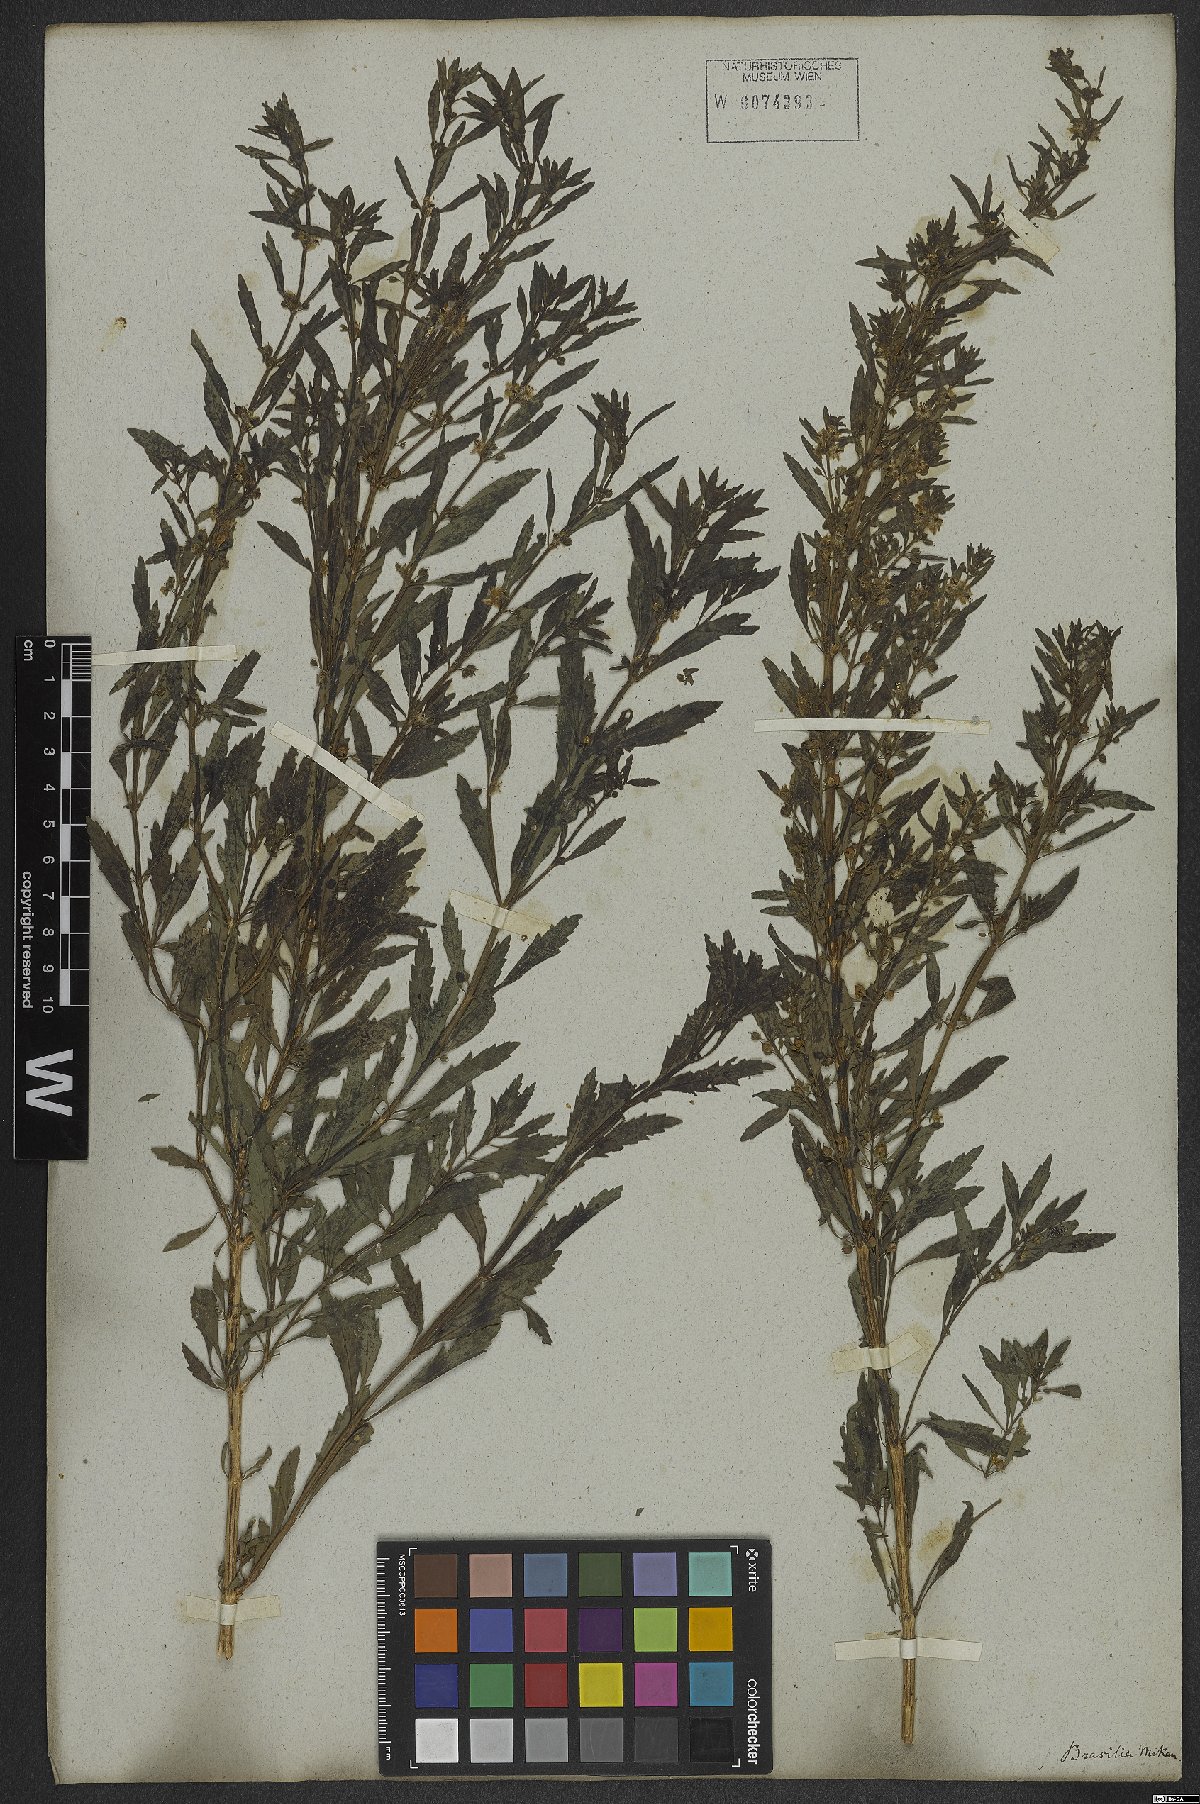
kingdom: Plantae
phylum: Tracheophyta
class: Magnoliopsida
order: Lamiales
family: Plantaginaceae
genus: Scoparia
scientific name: Scoparia dulcis
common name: Scoparia-weed
